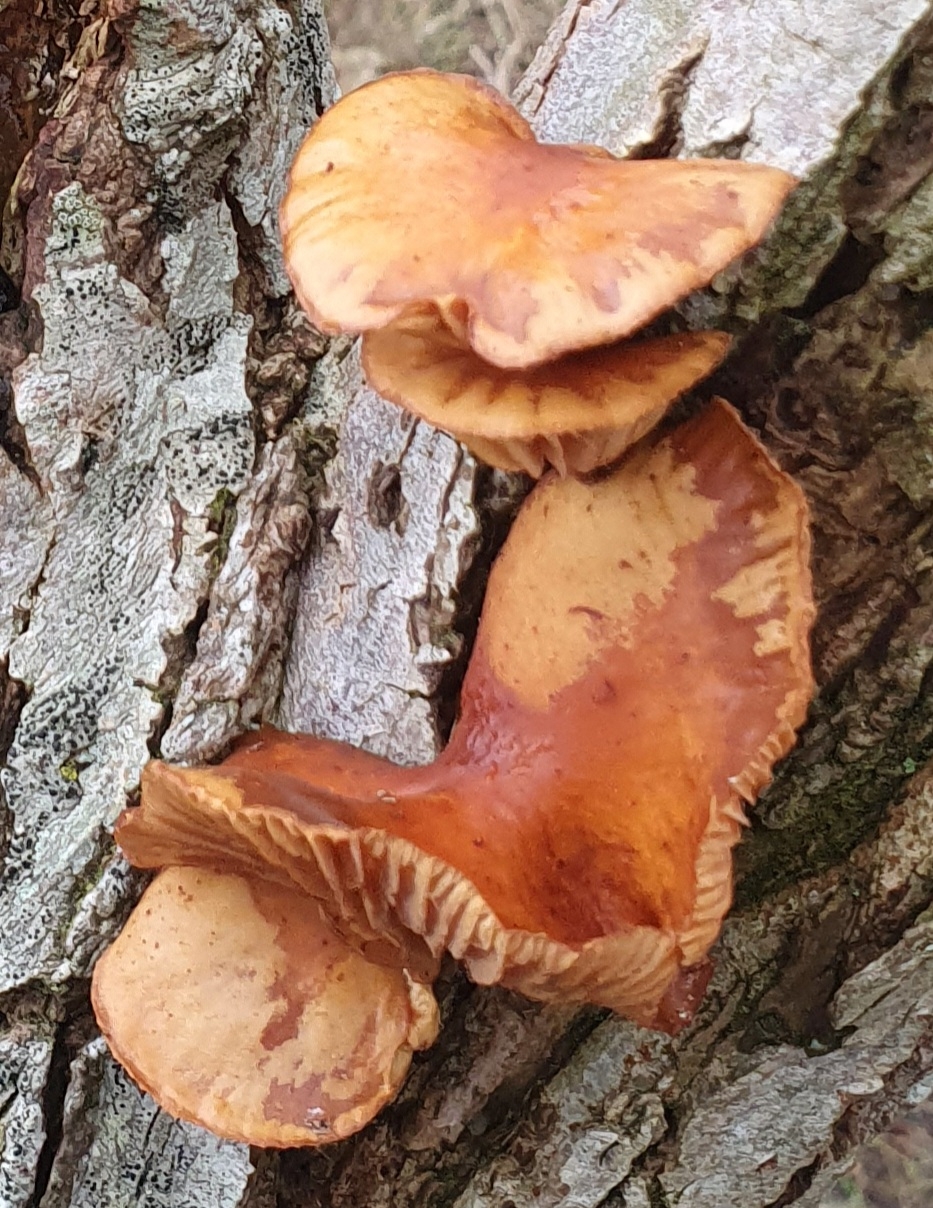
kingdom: Fungi
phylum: Basidiomycota
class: Agaricomycetes
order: Agaricales
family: Physalacriaceae
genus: Flammulina
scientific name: Flammulina
